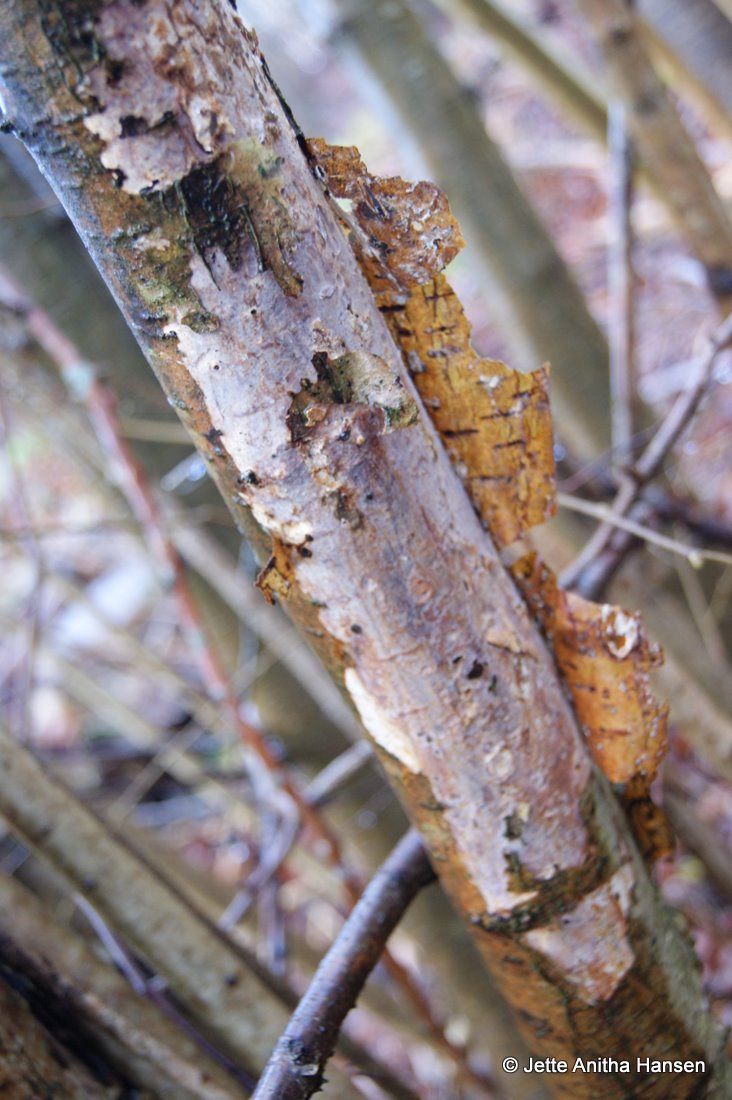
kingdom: Fungi
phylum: Basidiomycota
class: Agaricomycetes
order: Corticiales
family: Vuilleminiaceae
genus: Vuilleminia
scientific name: Vuilleminia coryli
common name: hassel-barksprænger
